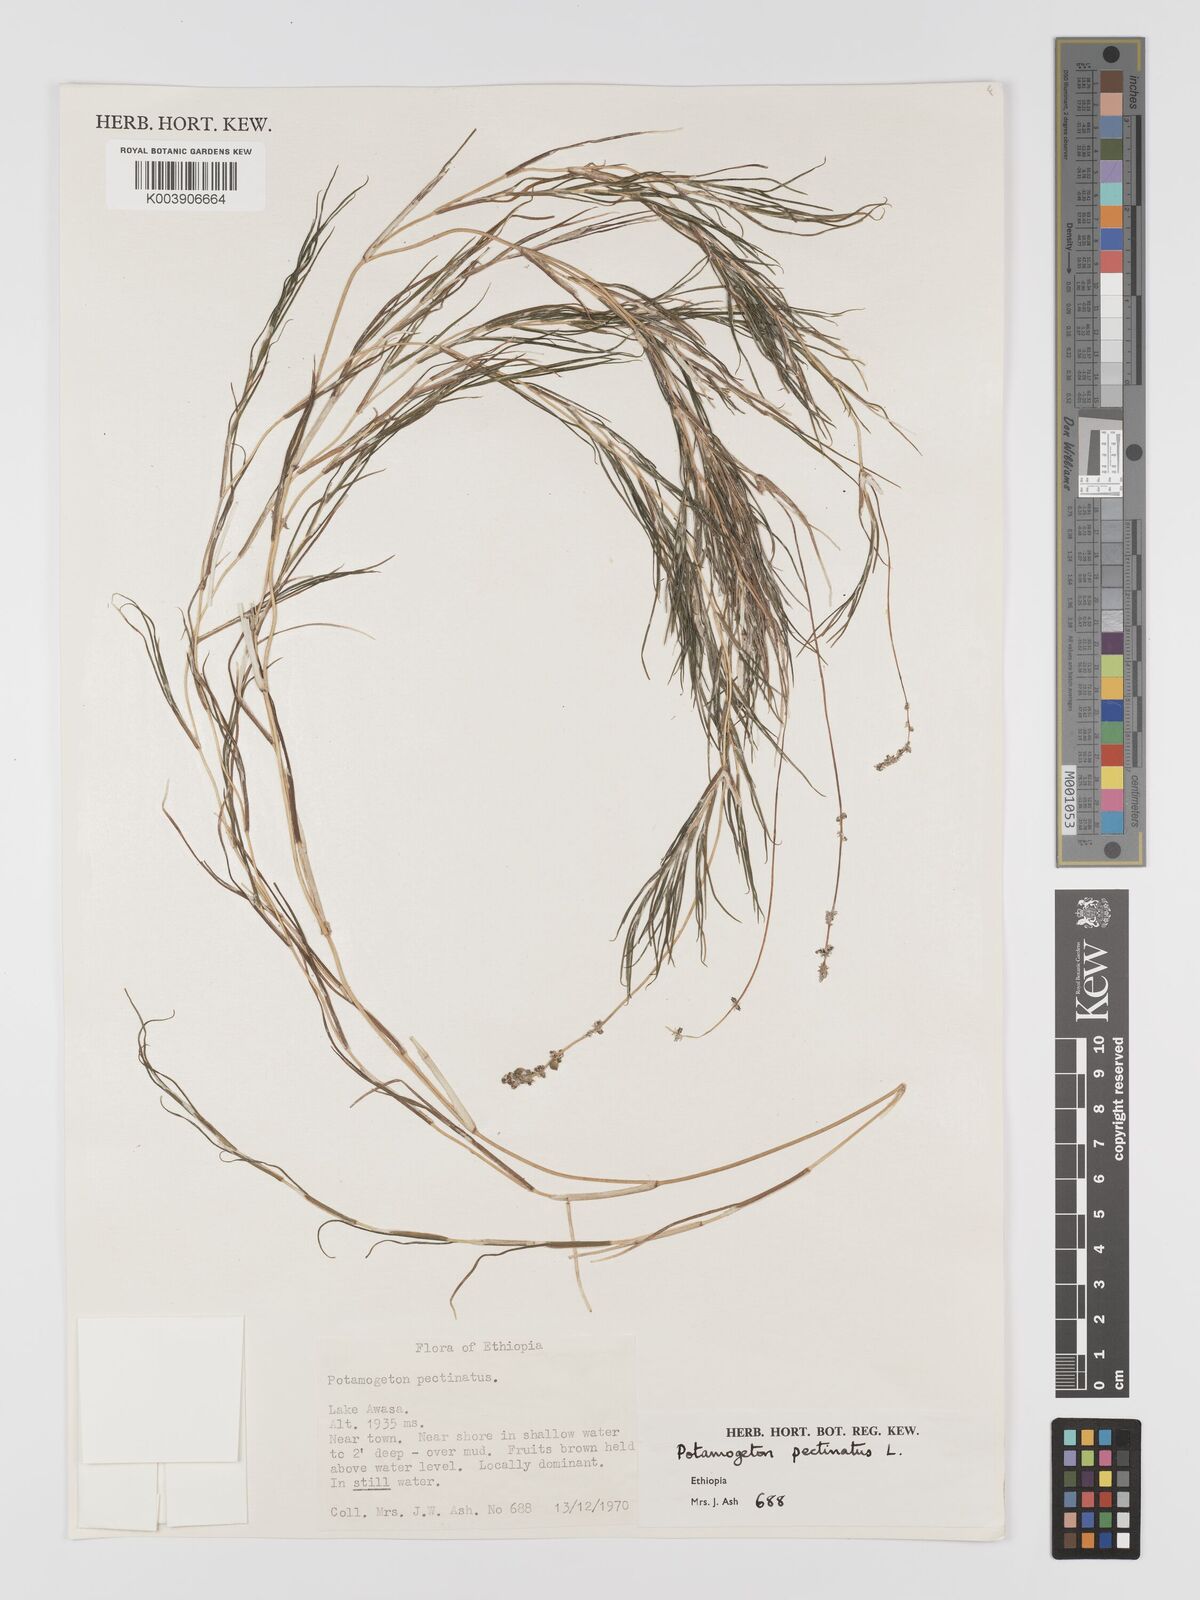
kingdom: Plantae
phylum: Tracheophyta
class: Liliopsida
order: Alismatales
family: Potamogetonaceae
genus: Stuckenia
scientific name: Stuckenia pectinata
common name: Sago pondweed
